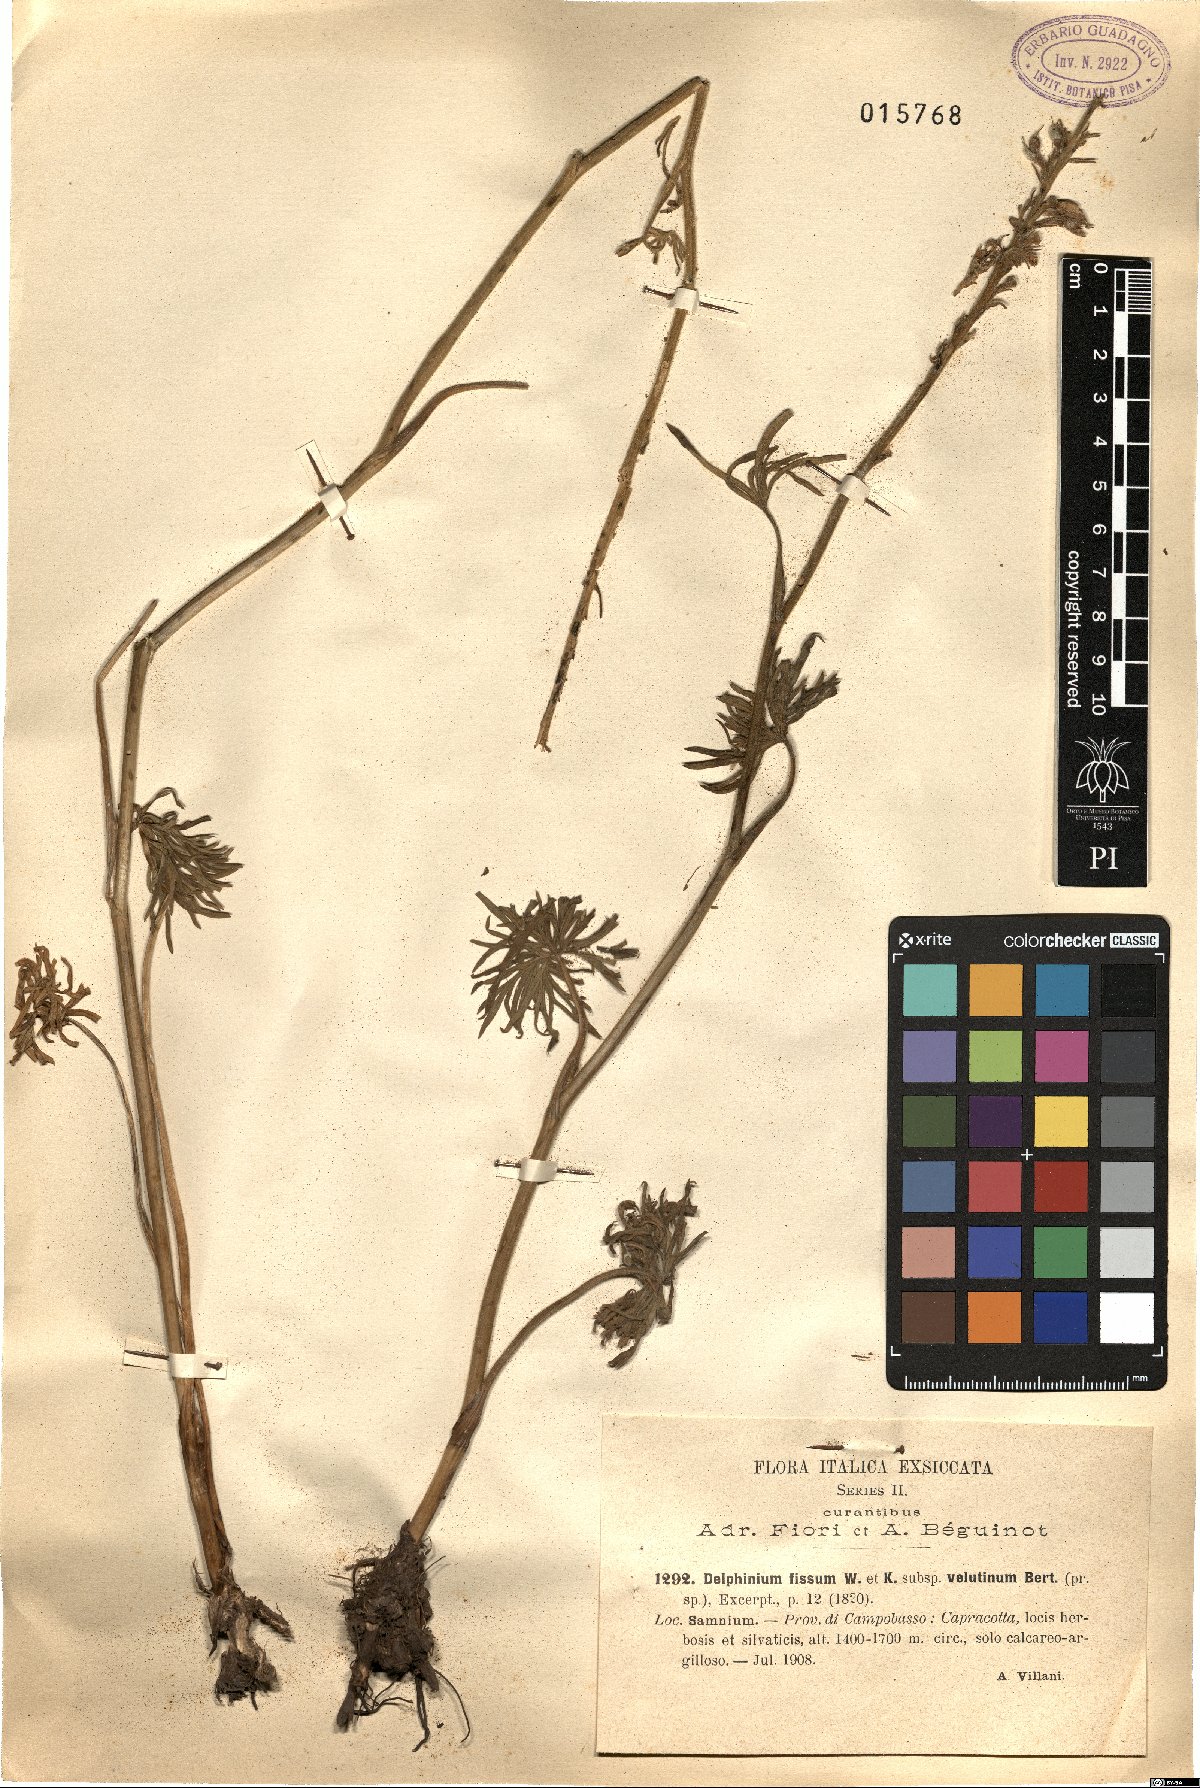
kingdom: Plantae
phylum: Tracheophyta
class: Magnoliopsida
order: Ranunculales
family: Ranunculaceae
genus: Delphinium
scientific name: Delphinium fissum
